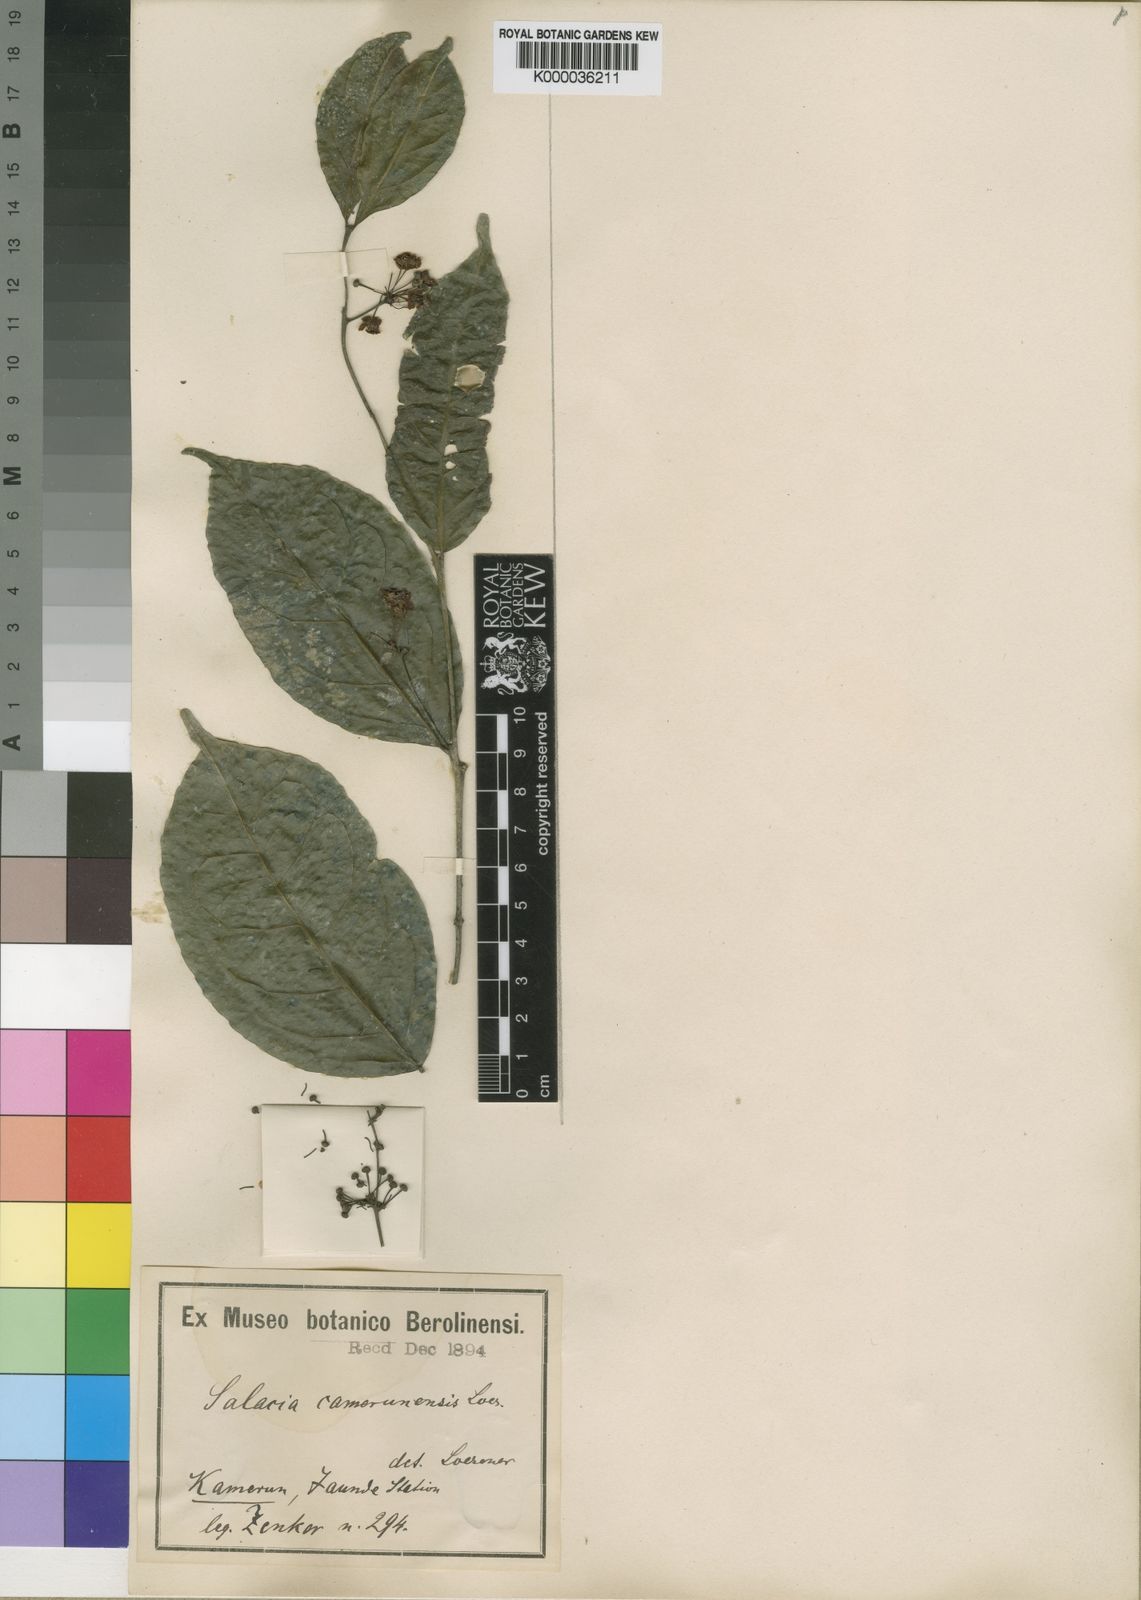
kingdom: Plantae
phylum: Tracheophyta
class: Magnoliopsida
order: Celastrales
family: Celastraceae
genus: Salacia
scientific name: Salacia
